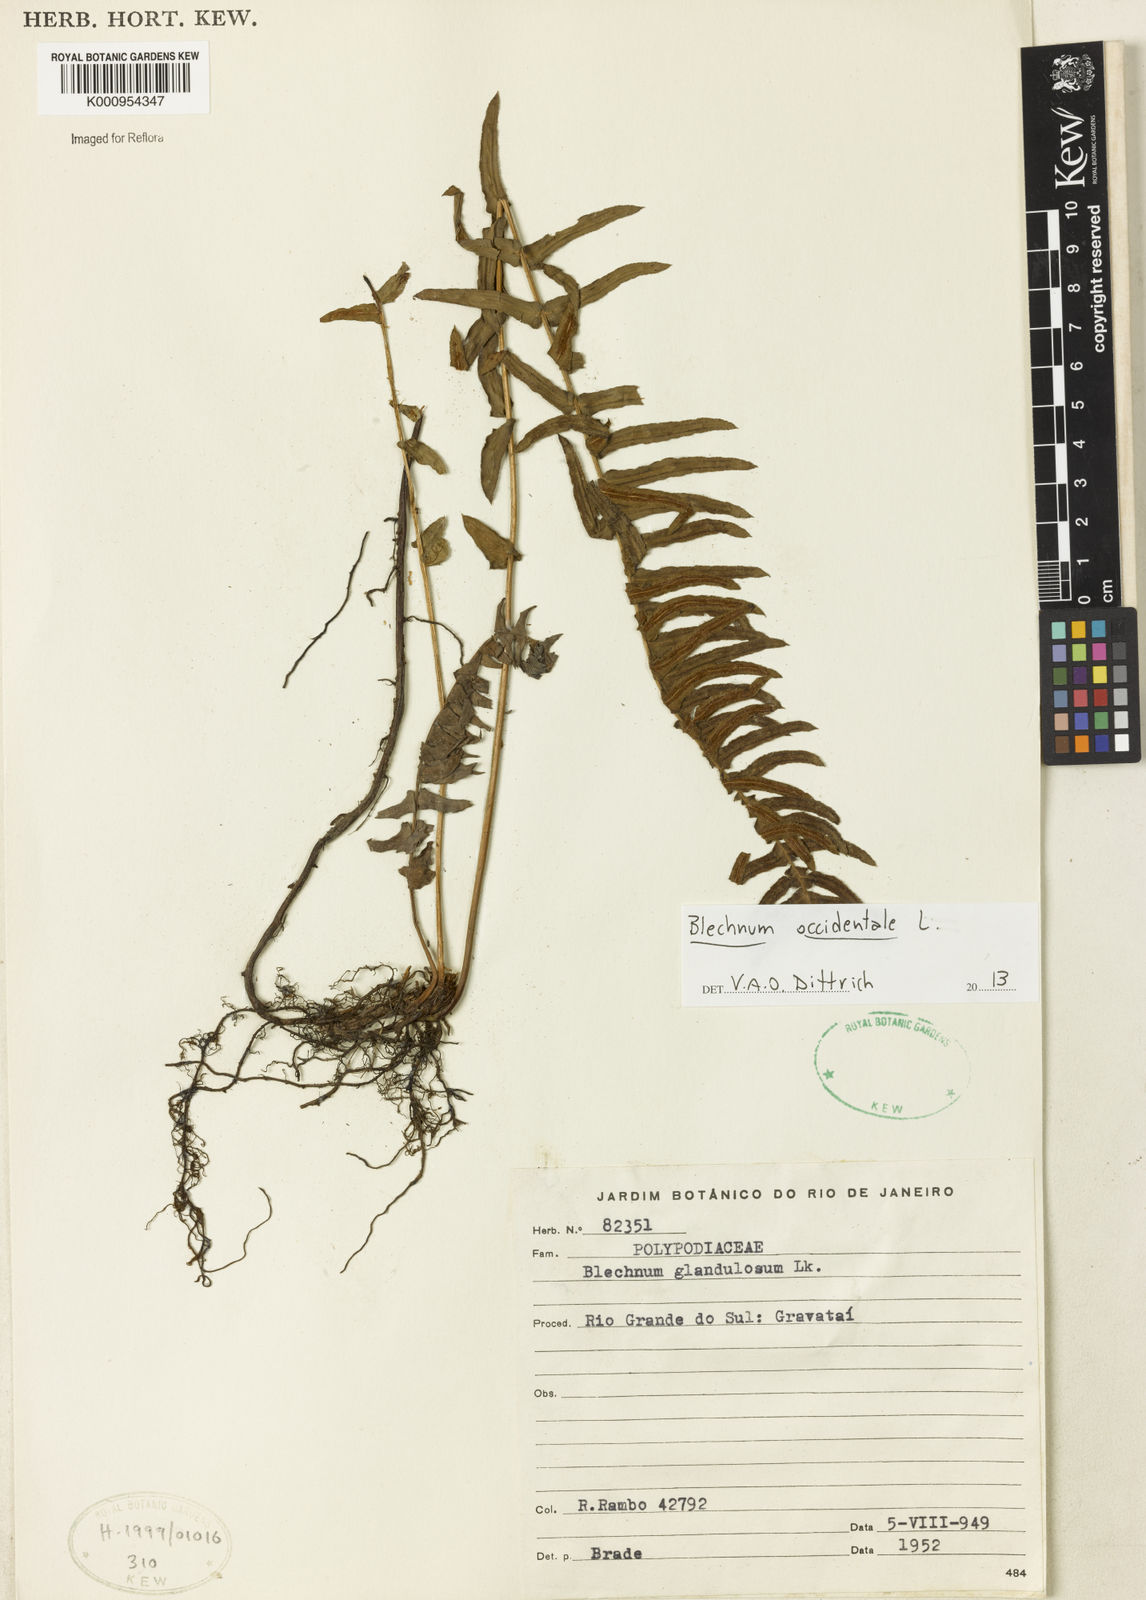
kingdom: Plantae
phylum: Tracheophyta
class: Polypodiopsida
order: Polypodiales
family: Blechnaceae
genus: Blechnum
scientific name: Blechnum appendiculatum
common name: Palm fern
